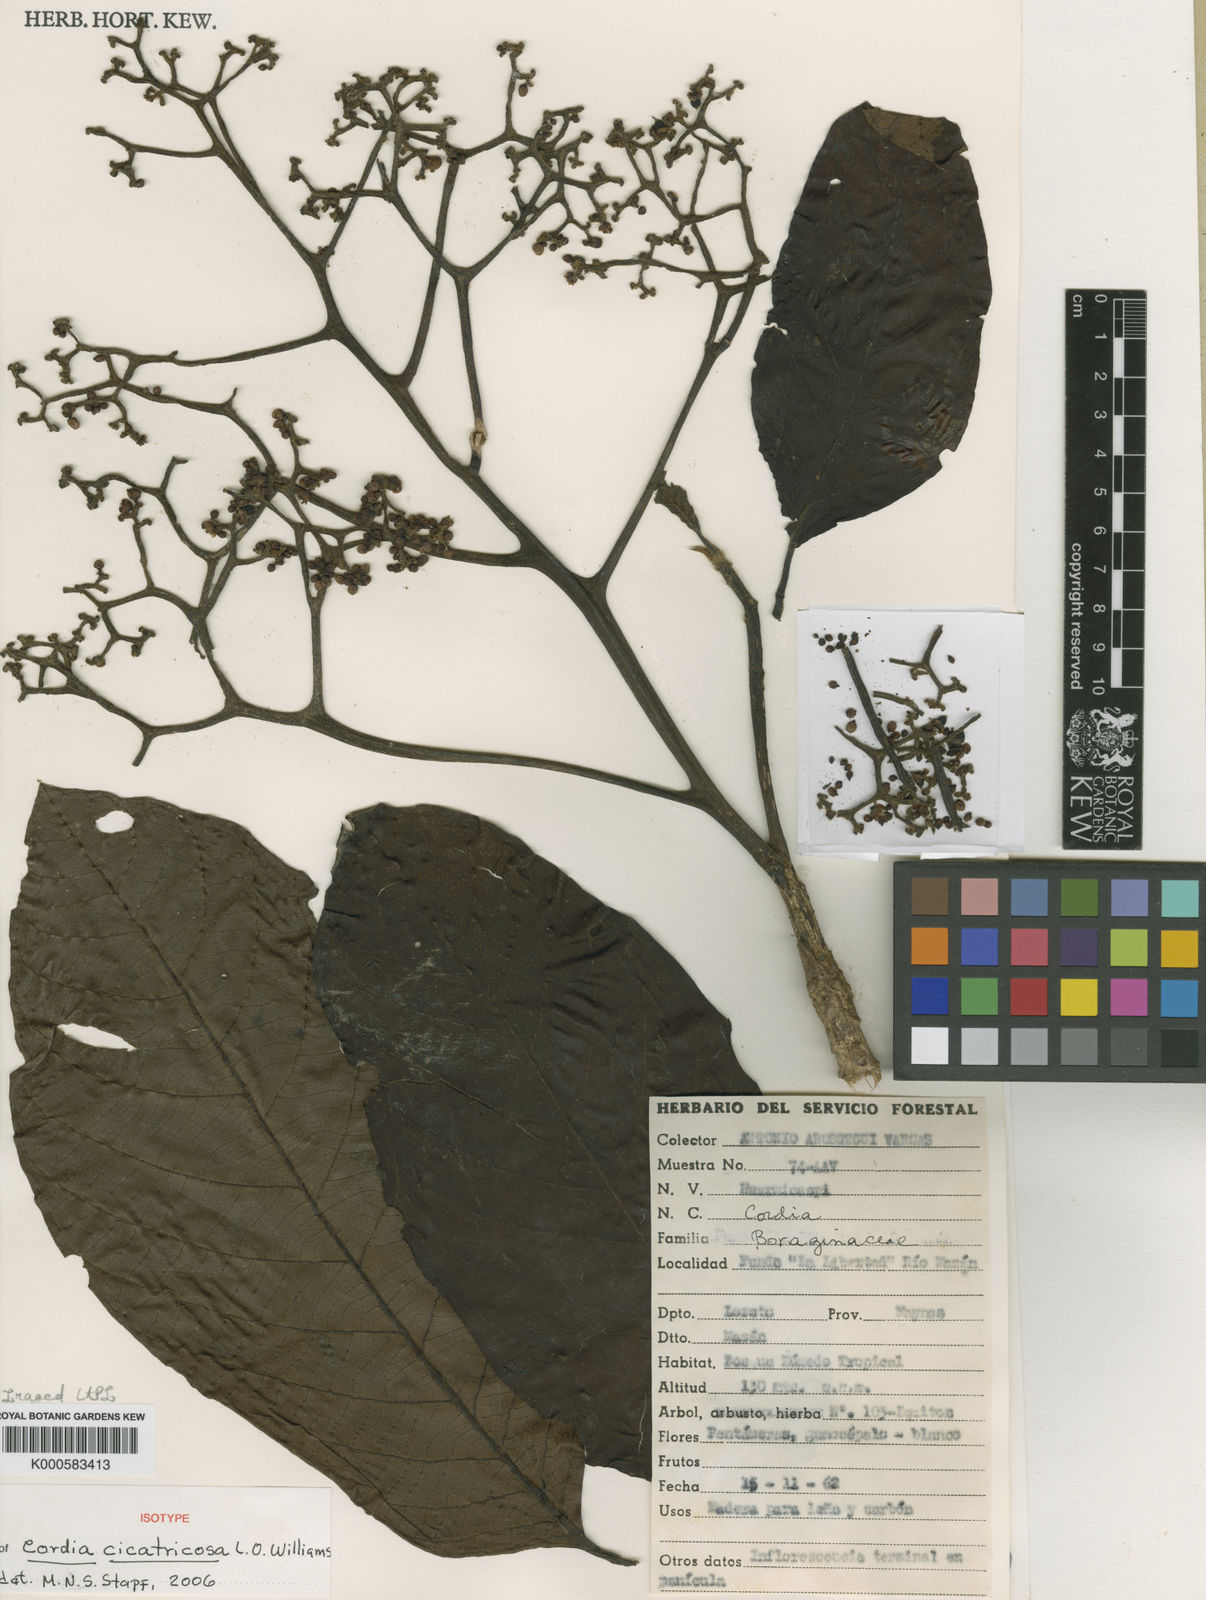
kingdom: Plantae
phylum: Tracheophyta
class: Magnoliopsida
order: Boraginales
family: Cordiaceae
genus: Cordia
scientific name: Cordia cicatricosa
